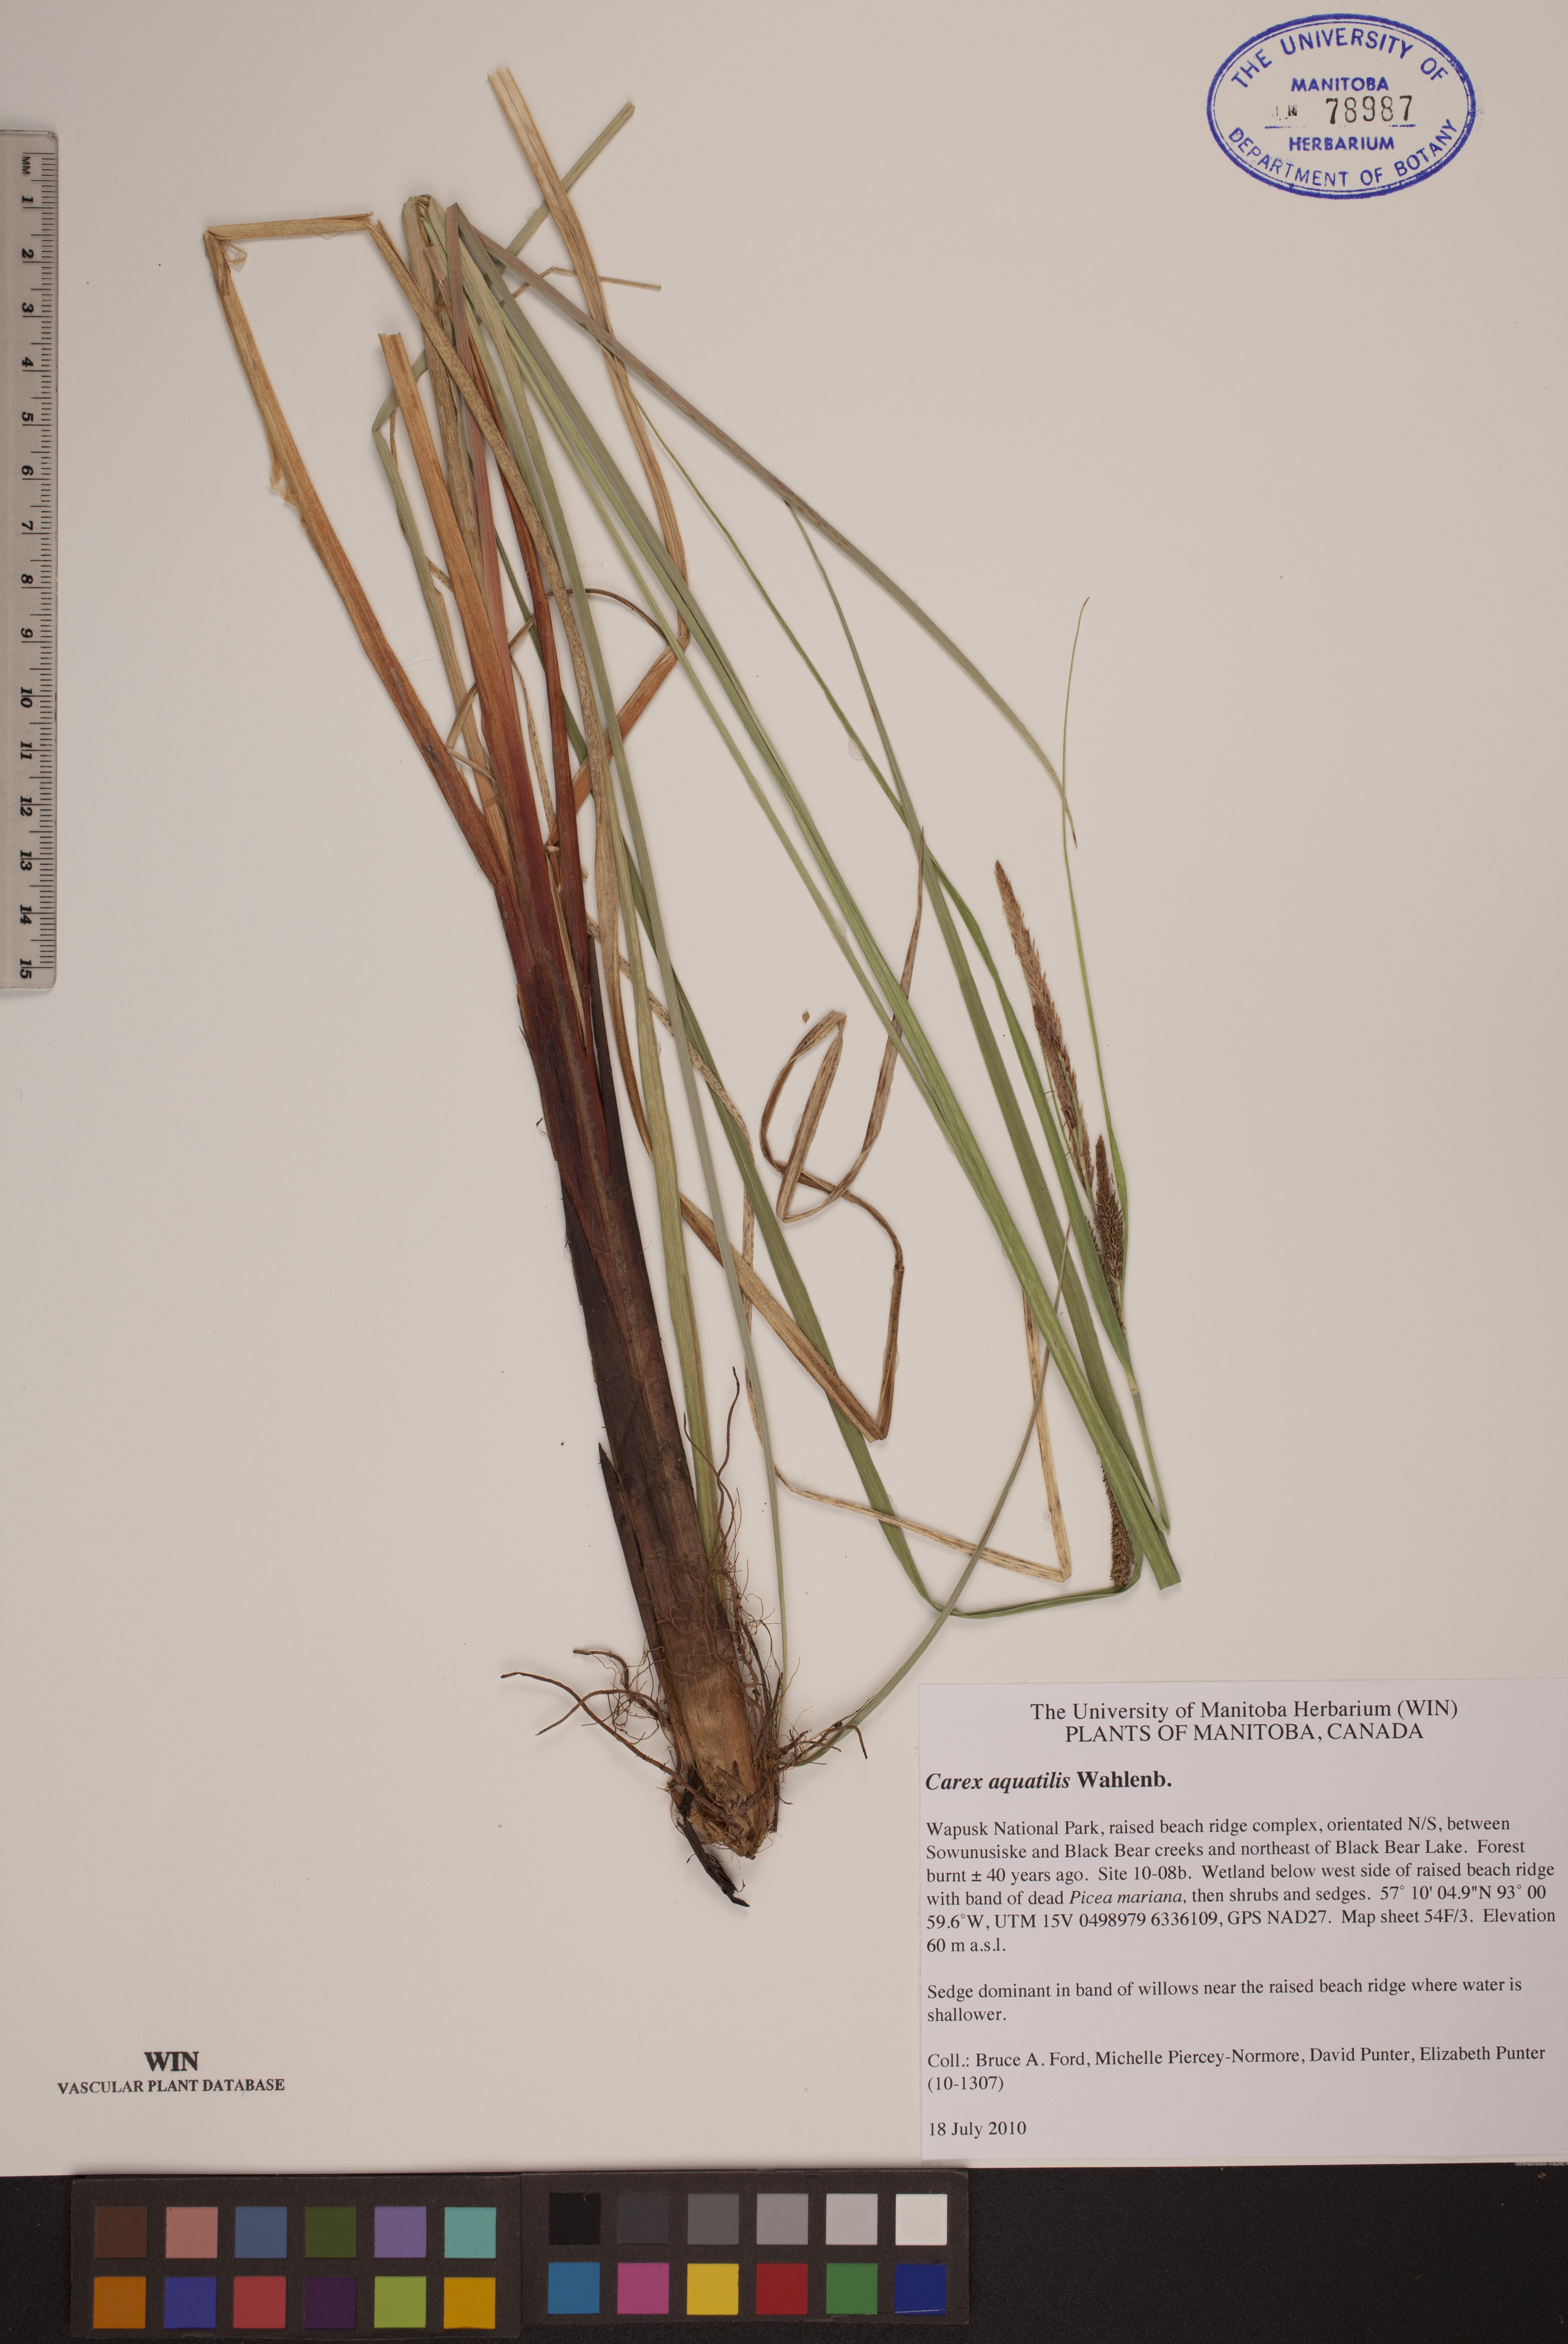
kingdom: Plantae
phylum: Tracheophyta
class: Liliopsida
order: Poales
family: Cyperaceae
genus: Carex
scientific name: Carex aquatilis
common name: Water sedge
